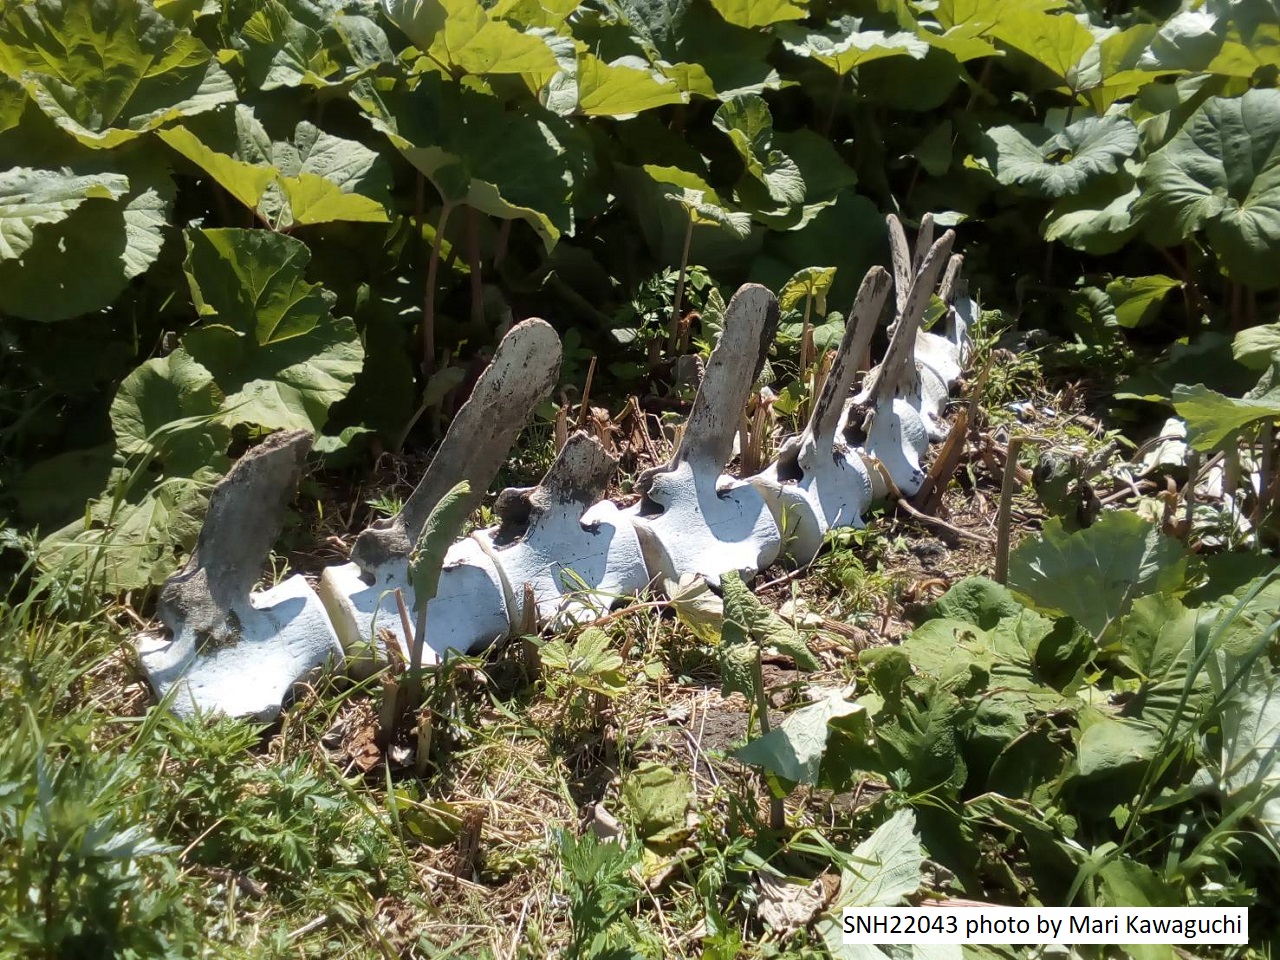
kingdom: Animalia
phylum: Chordata
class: Mammalia
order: Cetacea
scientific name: Cetacea
